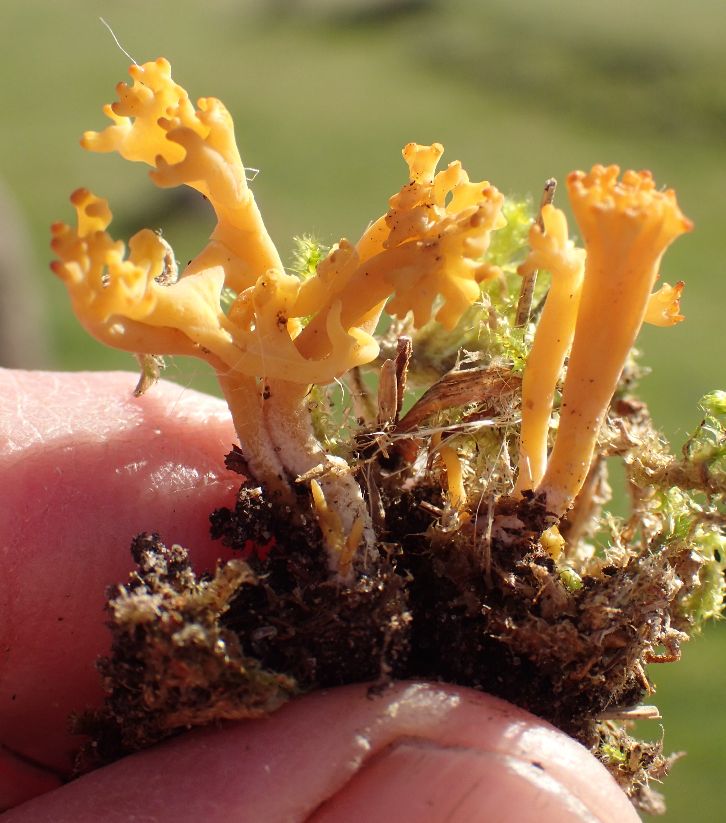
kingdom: Fungi
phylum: Basidiomycota
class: Agaricomycetes
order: Agaricales
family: Clavariaceae
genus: Clavulinopsis
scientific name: Clavulinopsis corniculata
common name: eng-køllesvamp
